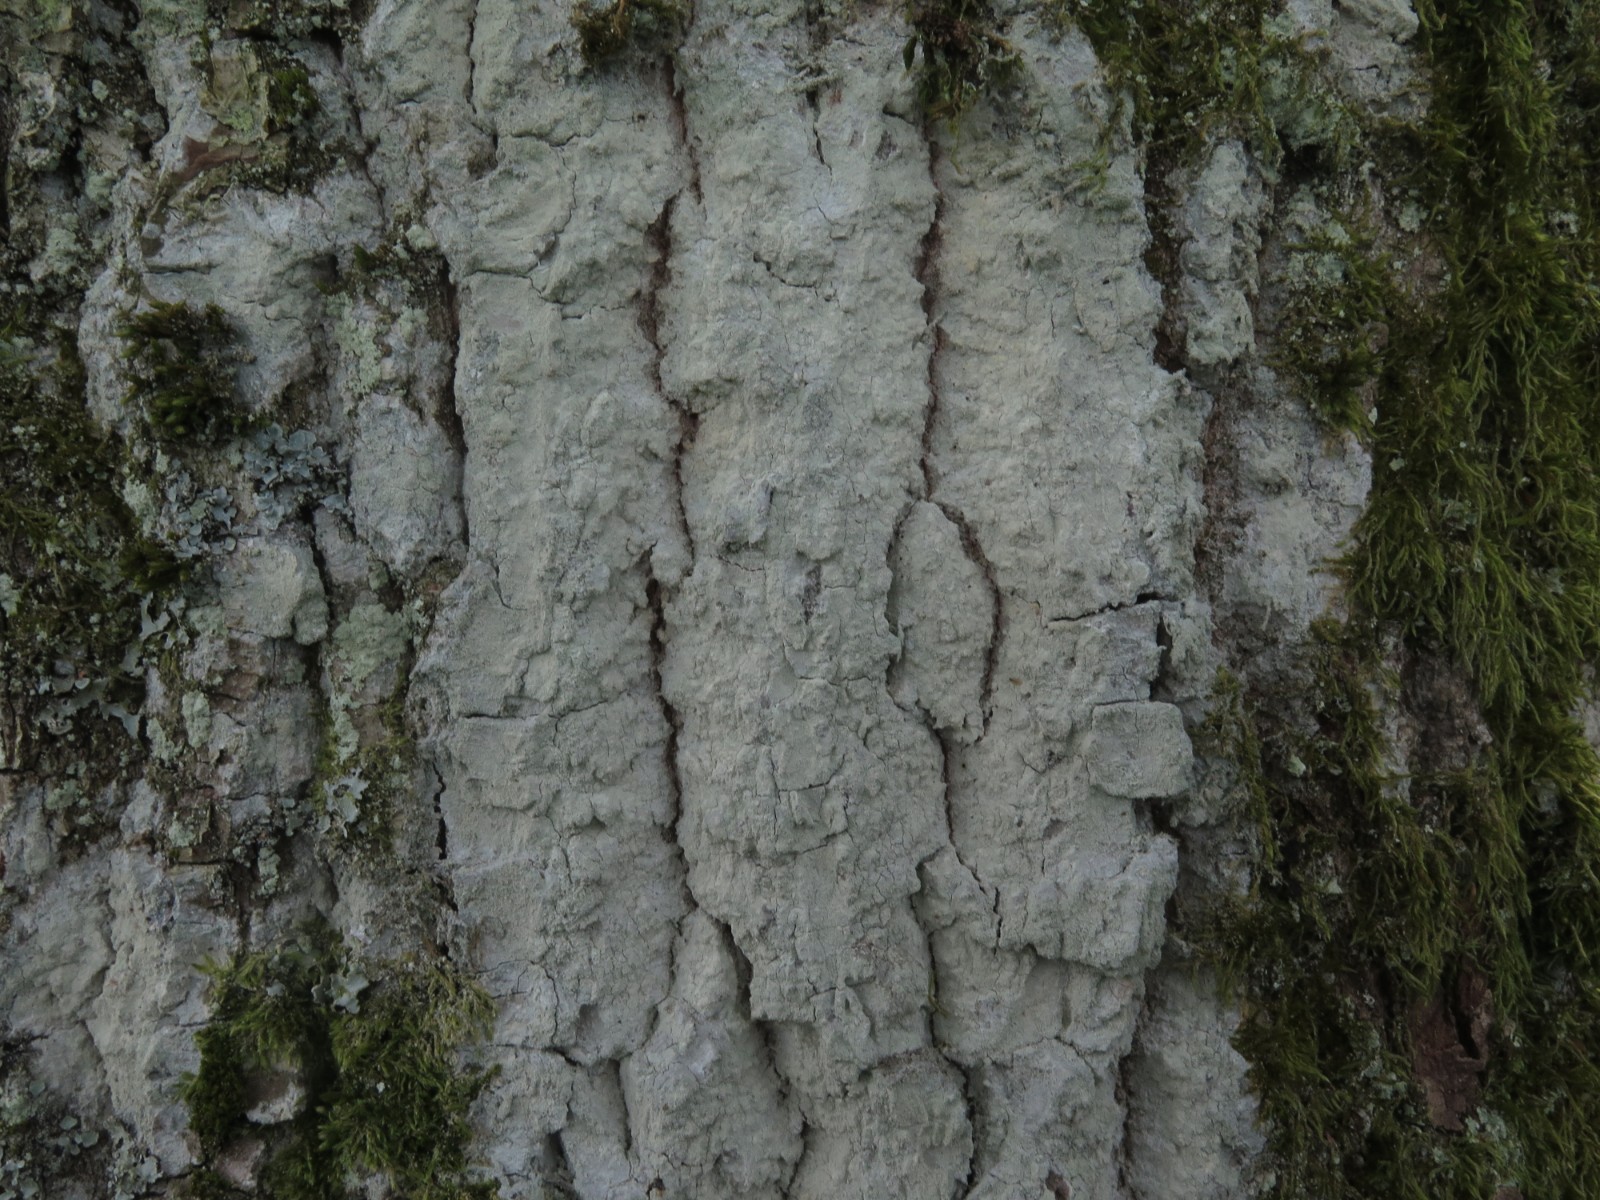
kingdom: Fungi
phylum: Ascomycota
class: Lecanoromycetes
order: Ostropales
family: Phlyctidaceae
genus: Phlyctis
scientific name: Phlyctis argena
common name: almindelig sølvlav
